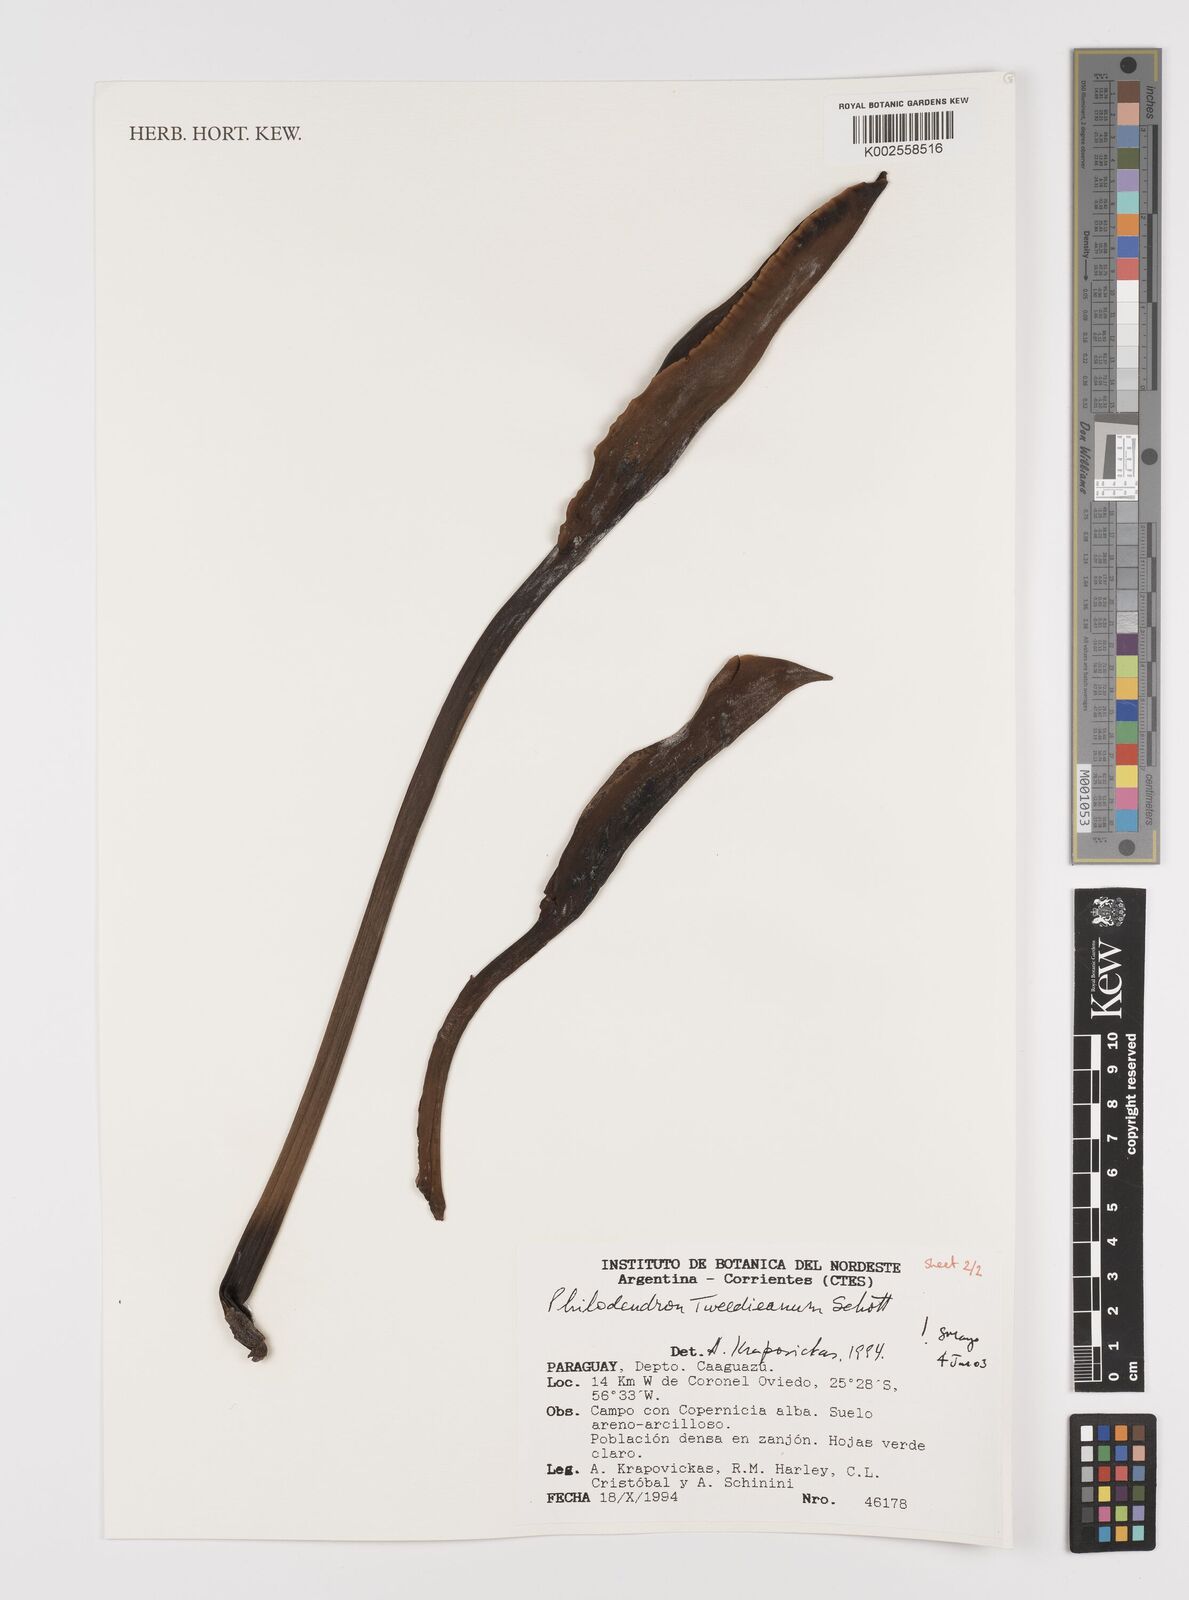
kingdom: Plantae
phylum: Tracheophyta
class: Liliopsida
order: Alismatales
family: Araceae
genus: Thaumatophyllum
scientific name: Thaumatophyllum tweedieanum
